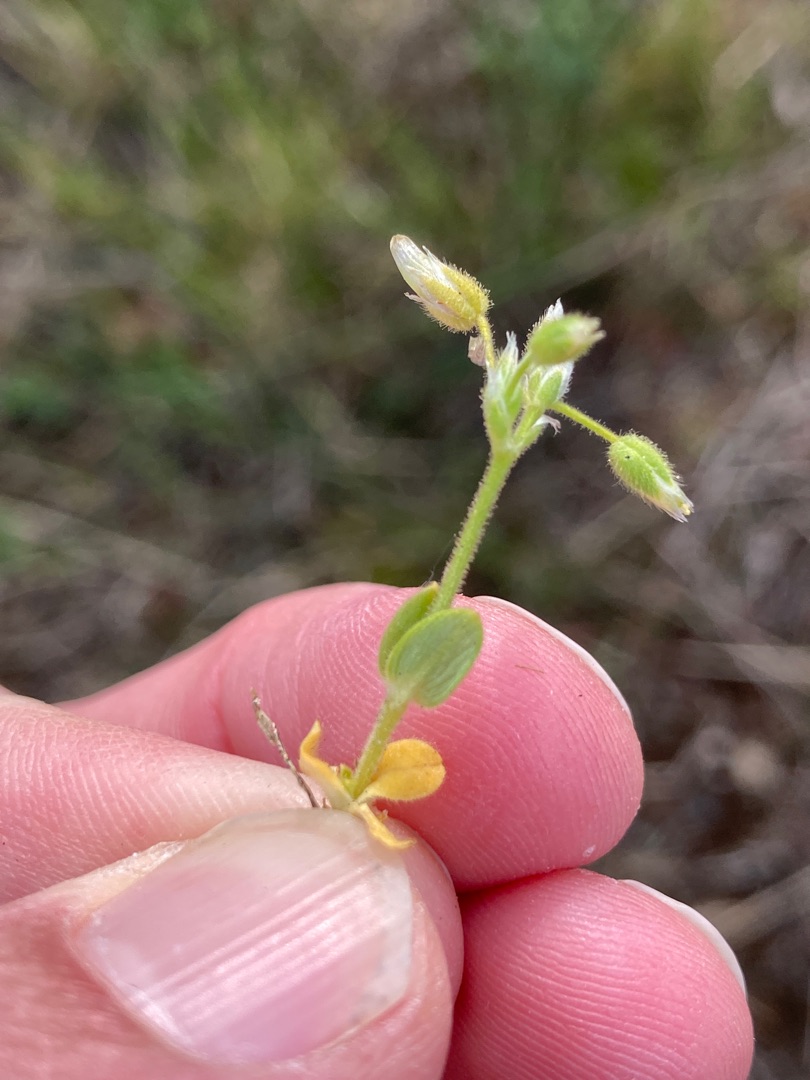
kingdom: Plantae
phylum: Tracheophyta
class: Magnoliopsida
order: Caryophyllales
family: Caryophyllaceae
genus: Cerastium
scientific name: Cerastium semidecandrum
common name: Femhannet hønsetarm
